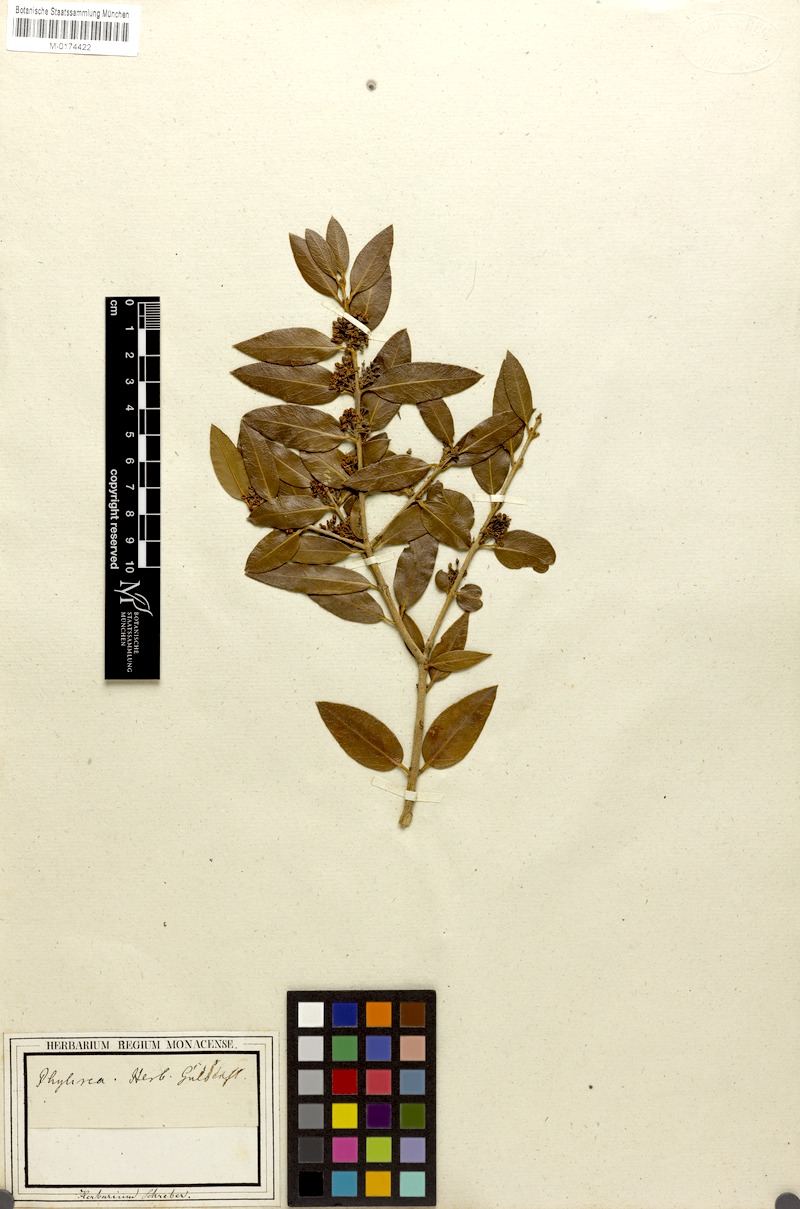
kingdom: Plantae
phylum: Tracheophyta
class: Magnoliopsida
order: Lamiales
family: Oleaceae
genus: Phillyrea
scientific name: Phillyrea latifolia
